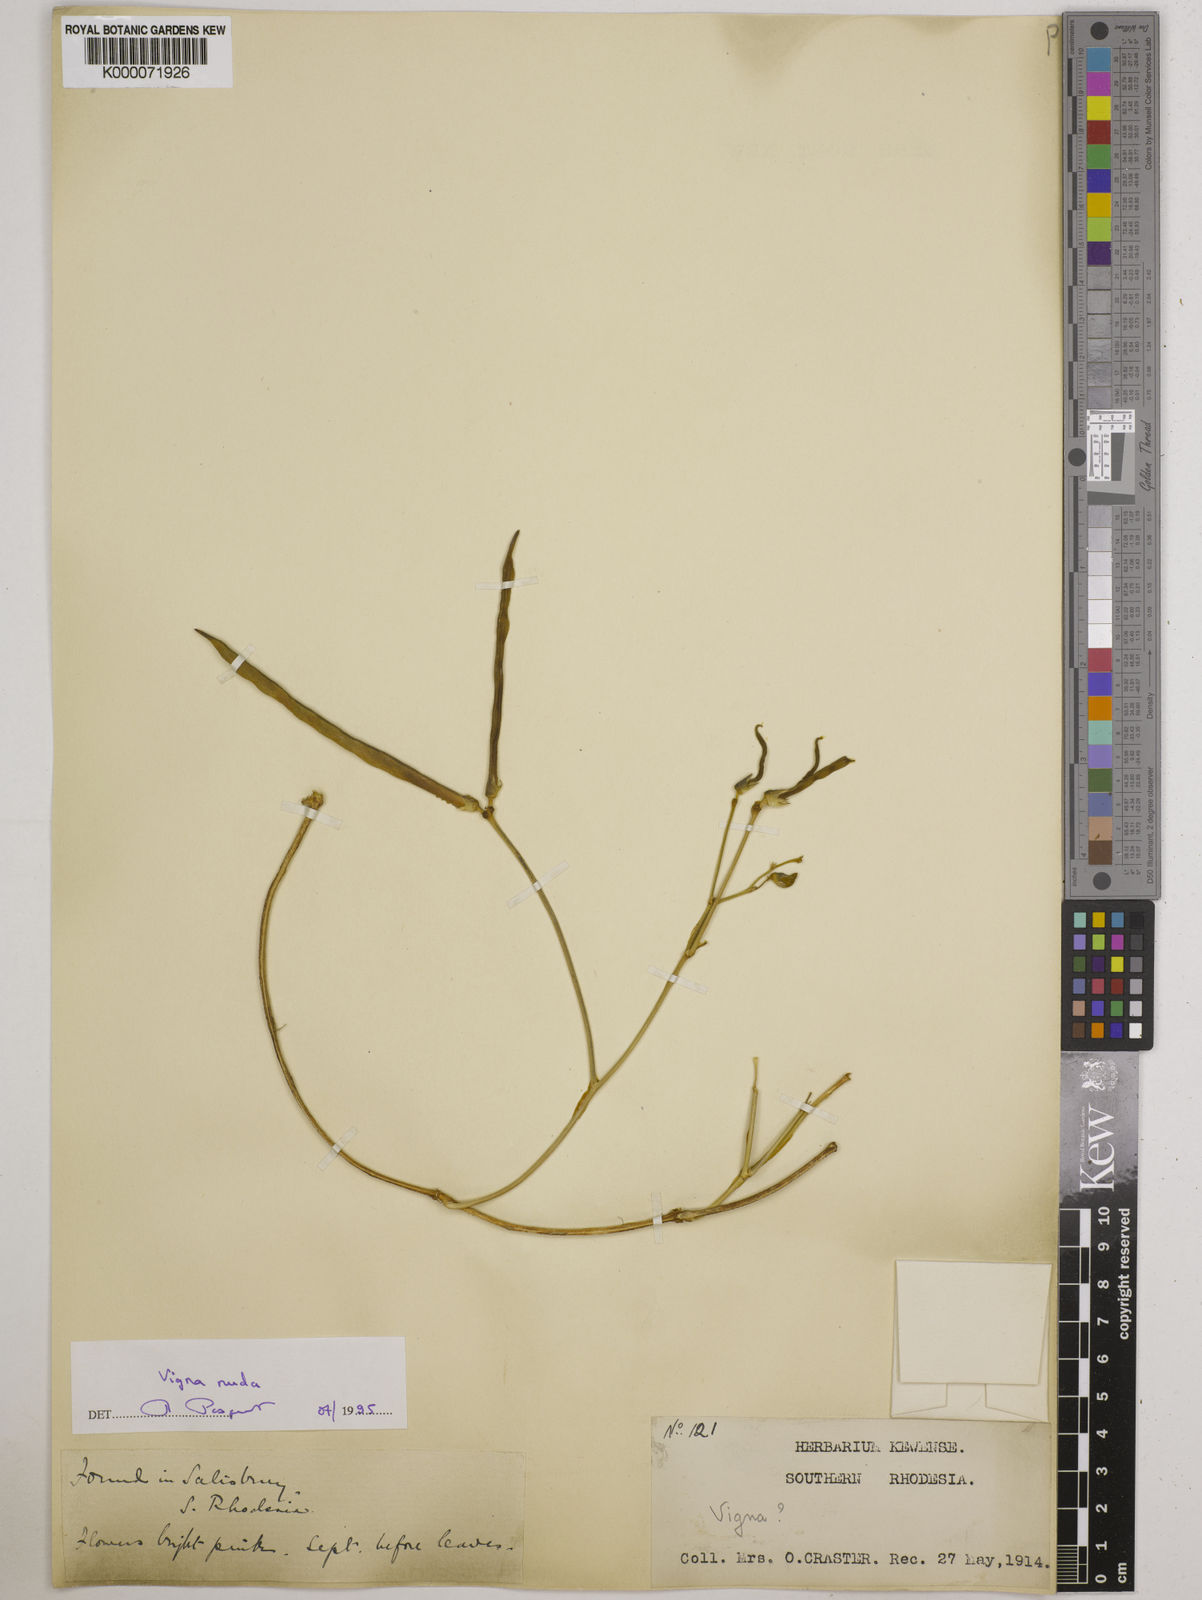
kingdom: Plantae
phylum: Tracheophyta
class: Magnoliopsida
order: Fabales
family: Fabaceae
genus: Vigna
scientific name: Vigna antunesii
